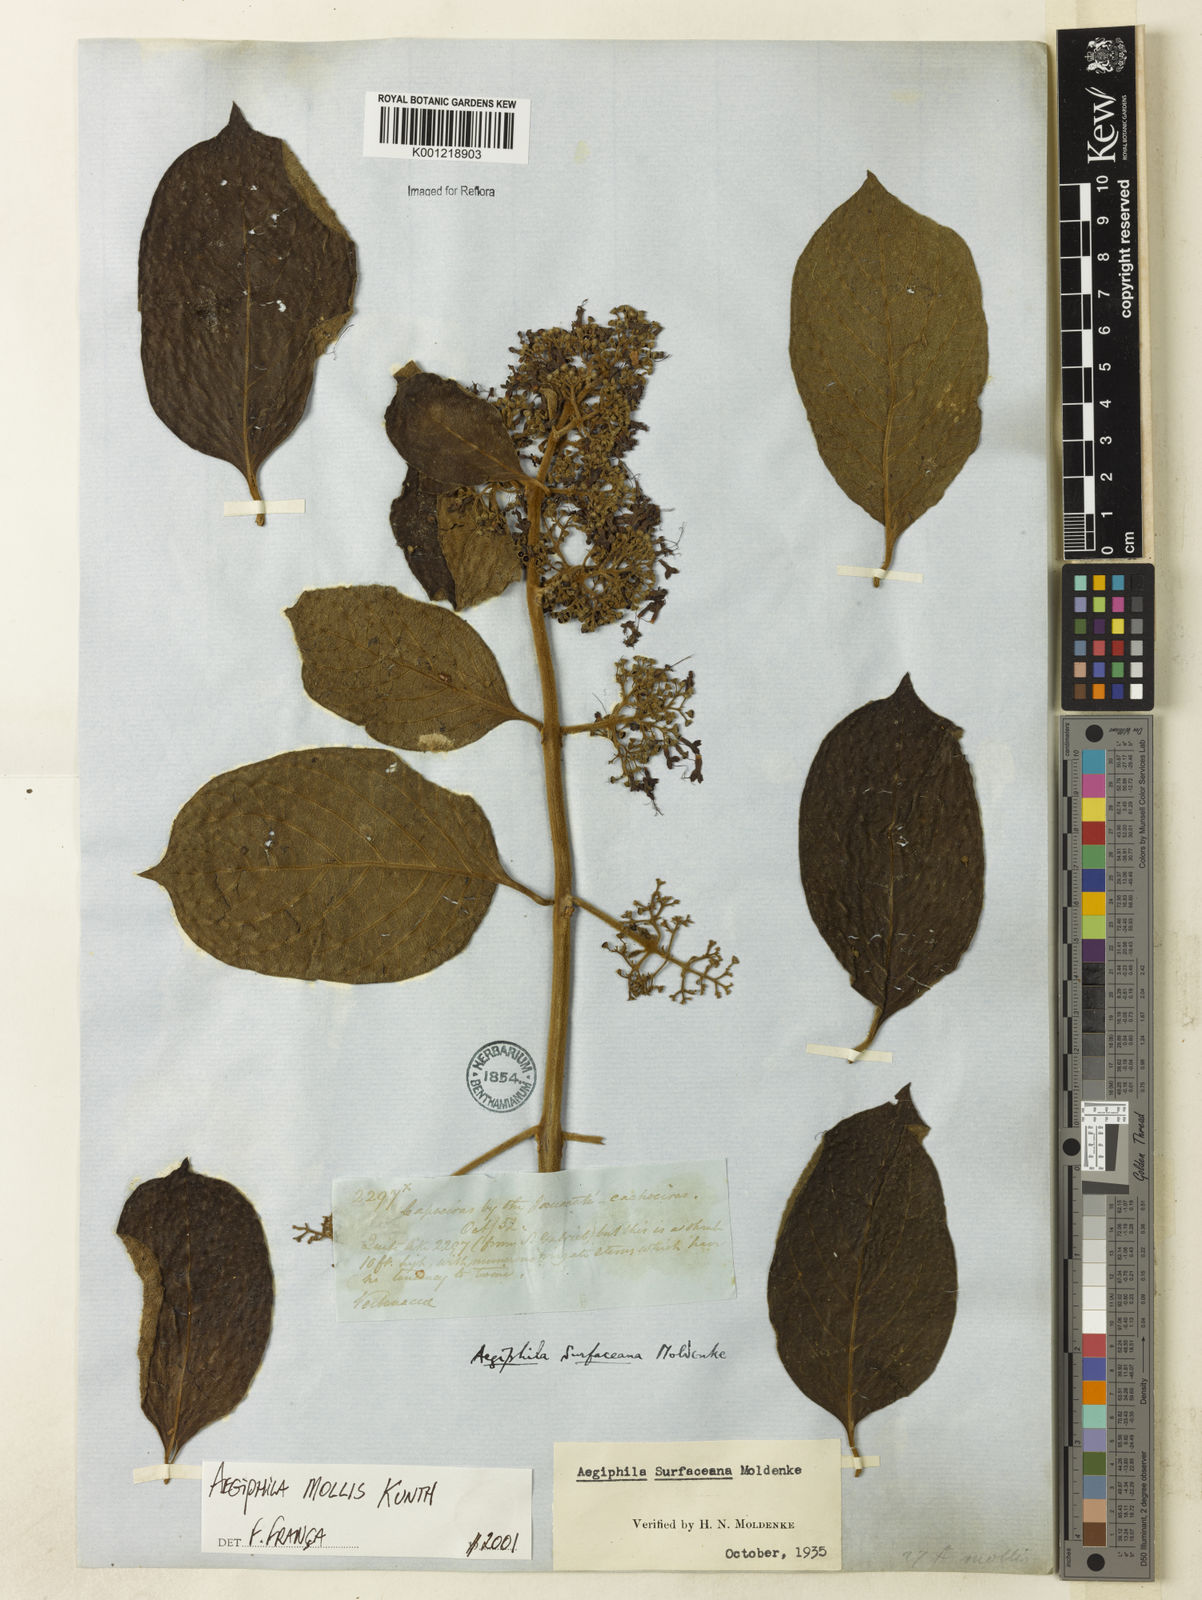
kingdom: Plantae
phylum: Tracheophyta
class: Magnoliopsida
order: Lamiales
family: Lamiaceae
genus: Aegiphila
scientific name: Aegiphila mollis
